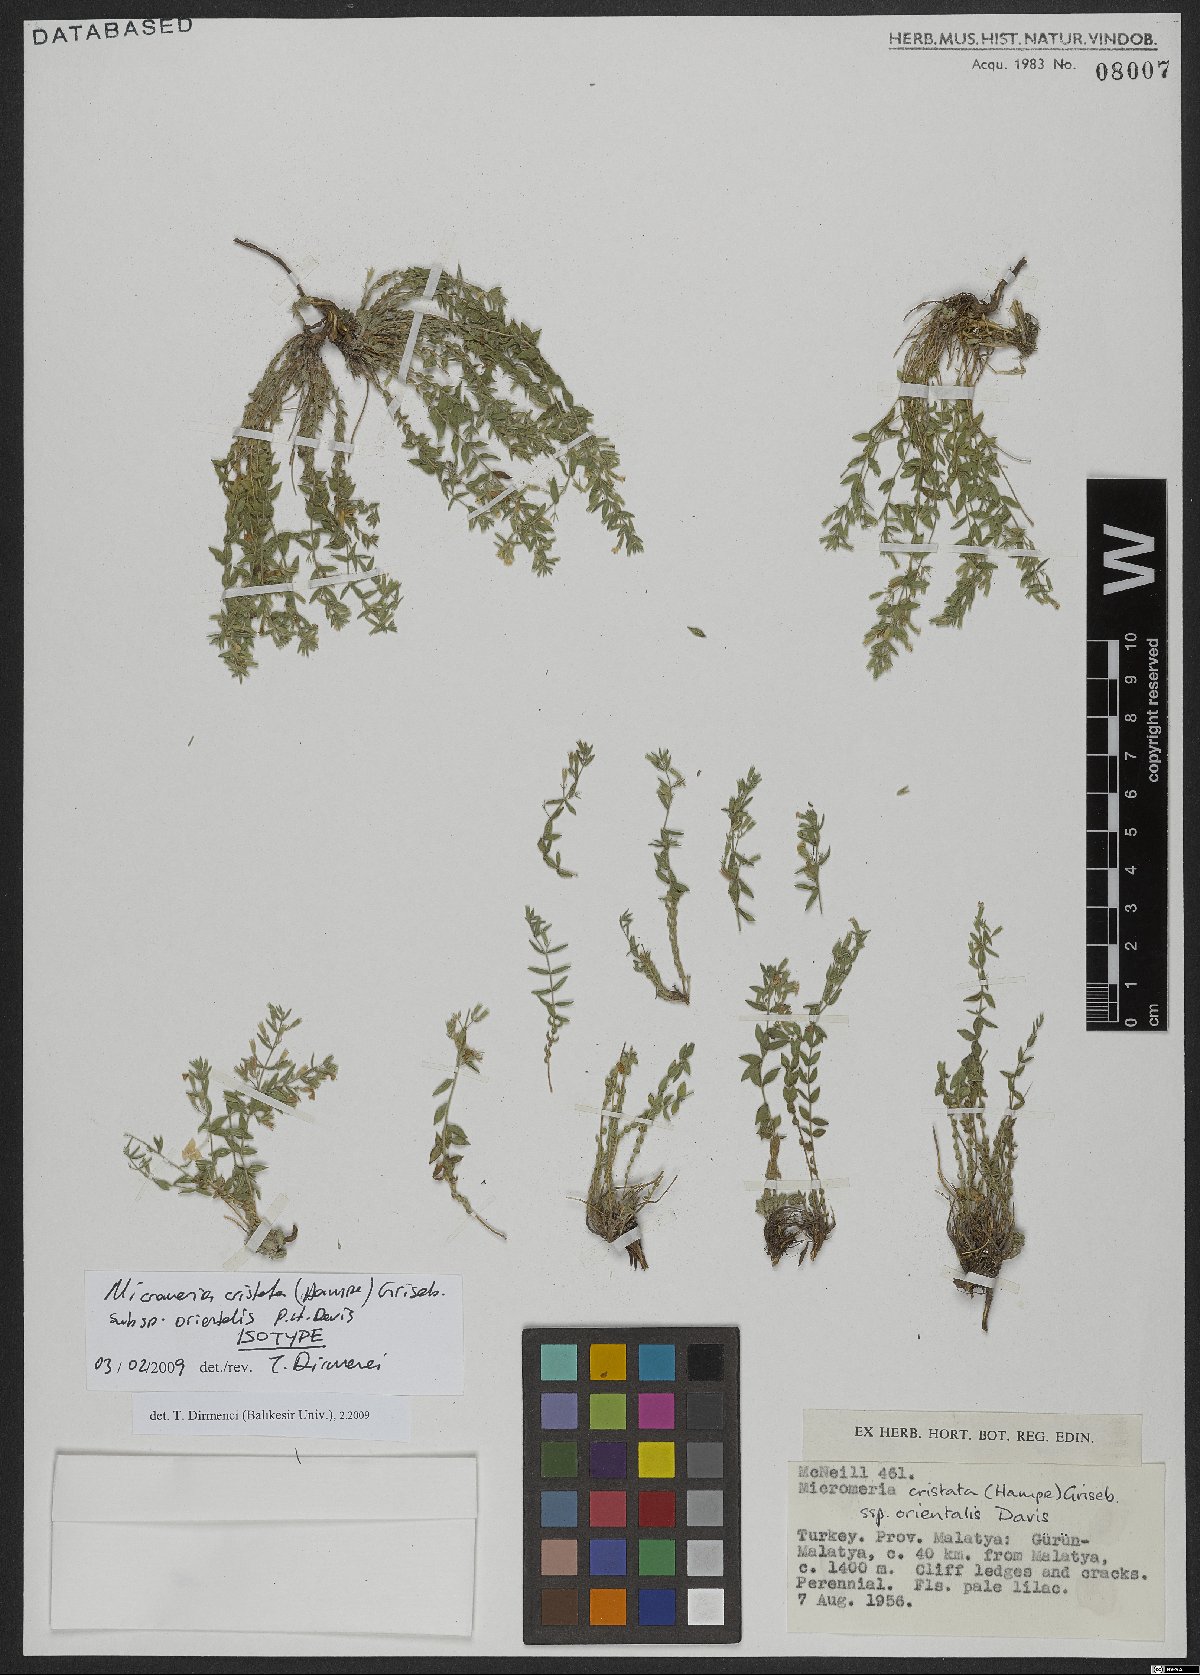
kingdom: Plantae
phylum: Tracheophyta
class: Magnoliopsida
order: Lamiales
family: Lamiaceae
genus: Micromeria
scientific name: Micromeria cristata
